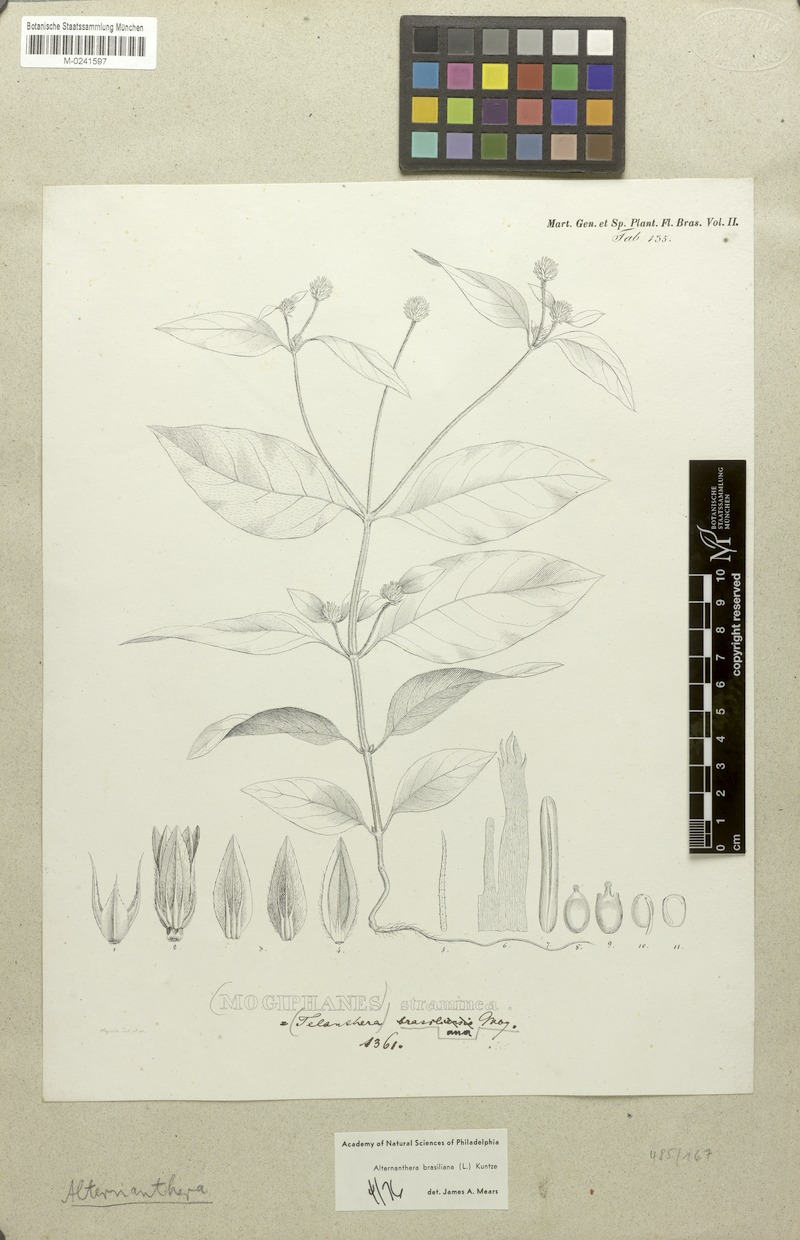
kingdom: Plantae
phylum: Tracheophyta
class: Magnoliopsida
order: Caryophyllales
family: Amaranthaceae
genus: Alternanthera
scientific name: Alternanthera brasiliana
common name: Brazilian joyweed
